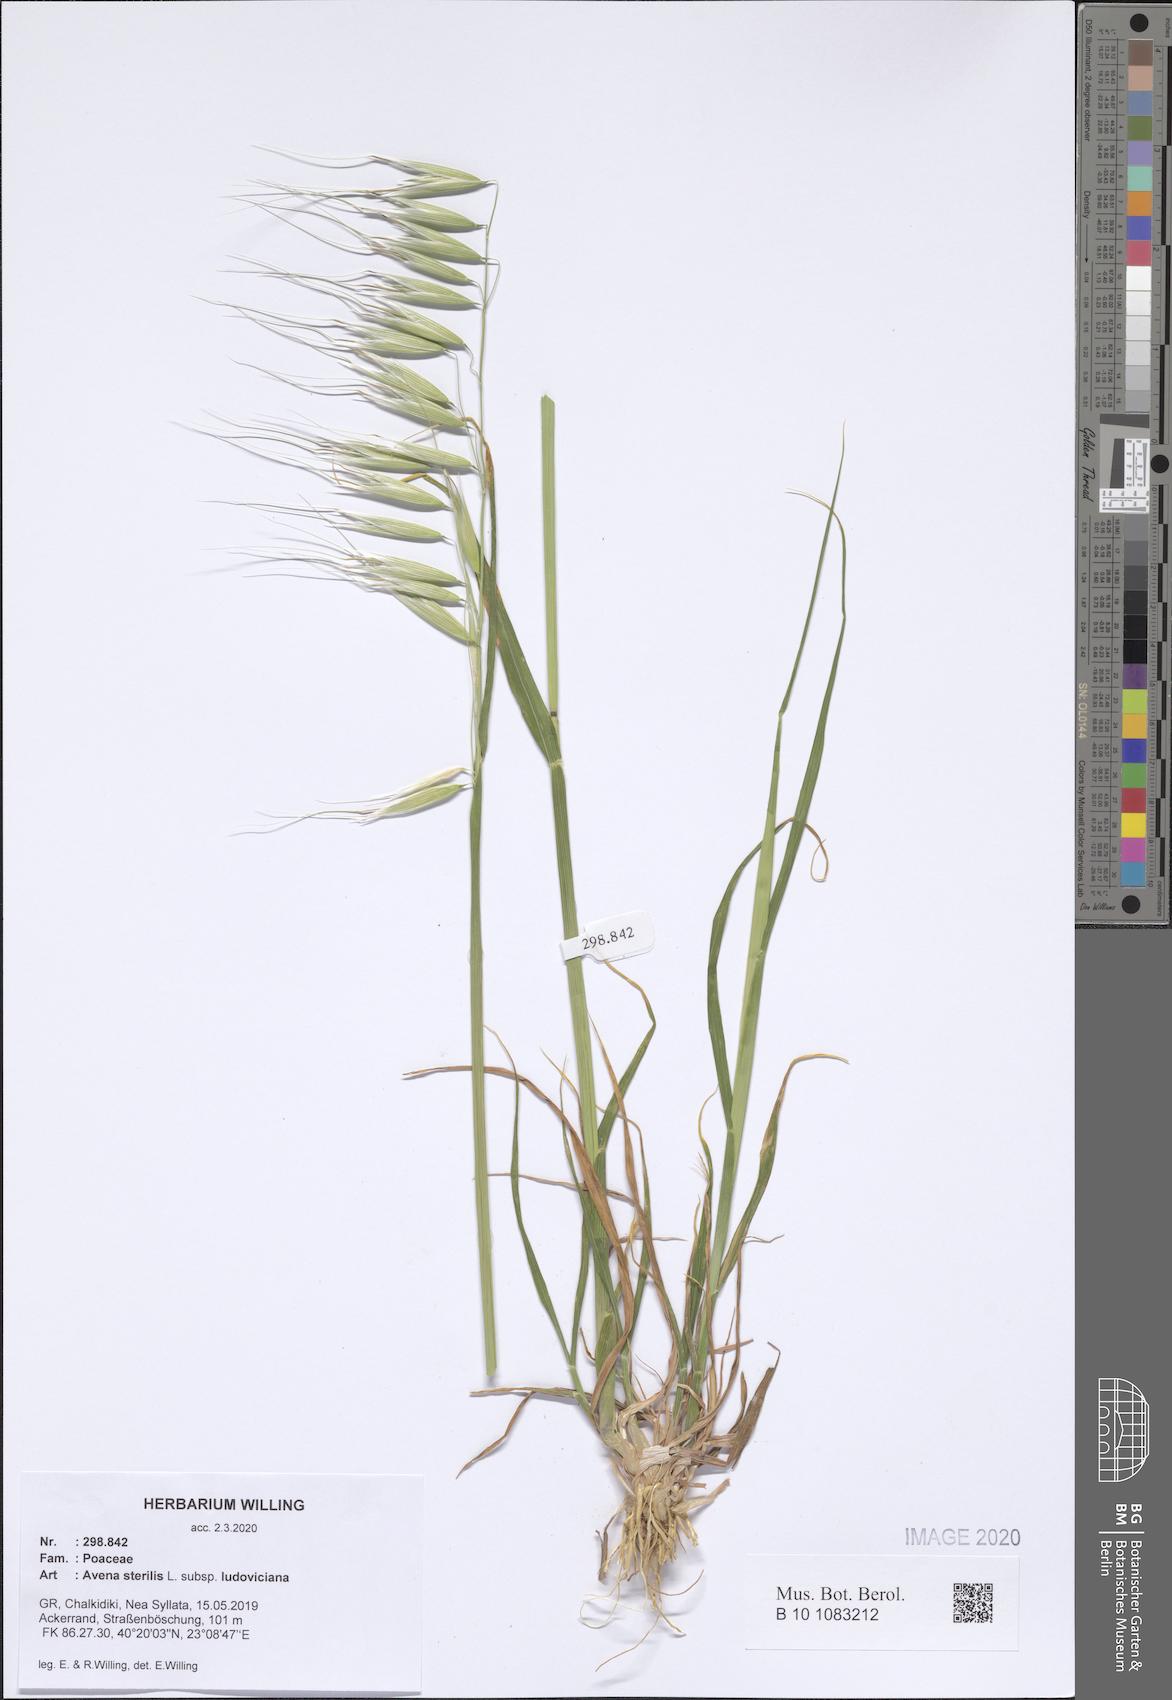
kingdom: Plantae
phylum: Tracheophyta
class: Liliopsida
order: Poales
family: Poaceae
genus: Avena
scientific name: Avena sterilis
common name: Animated oat
